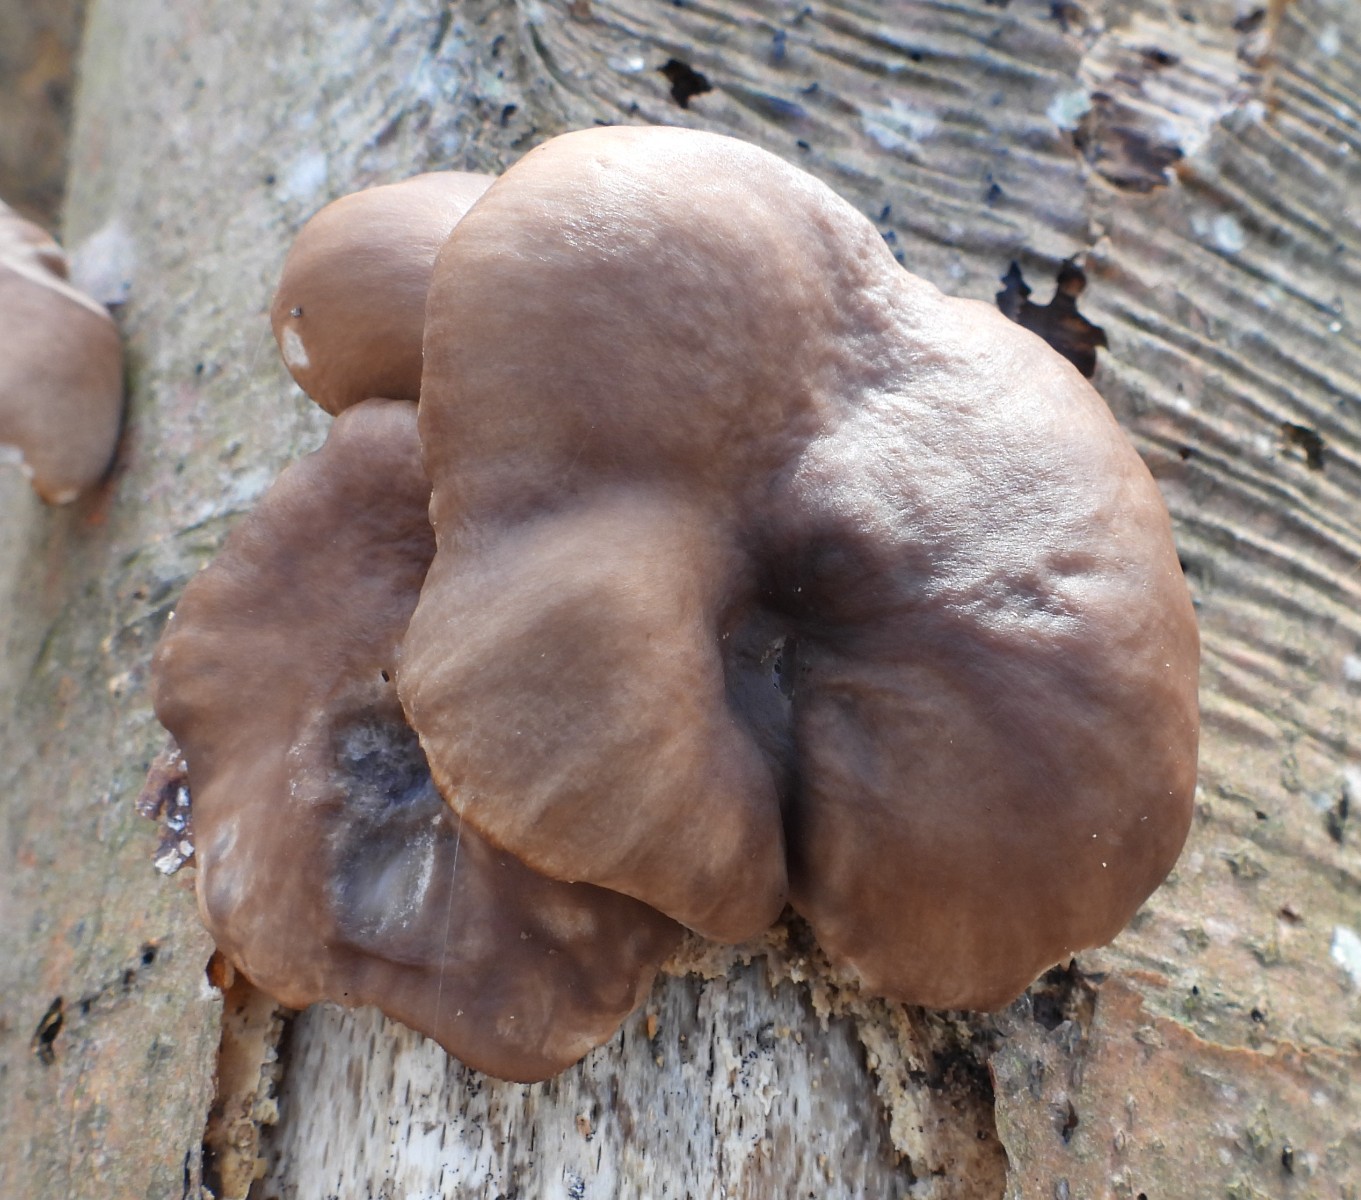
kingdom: Fungi
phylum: Basidiomycota
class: Agaricomycetes
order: Agaricales
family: Pleurotaceae
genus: Pleurotus
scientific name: Pleurotus ostreatus
